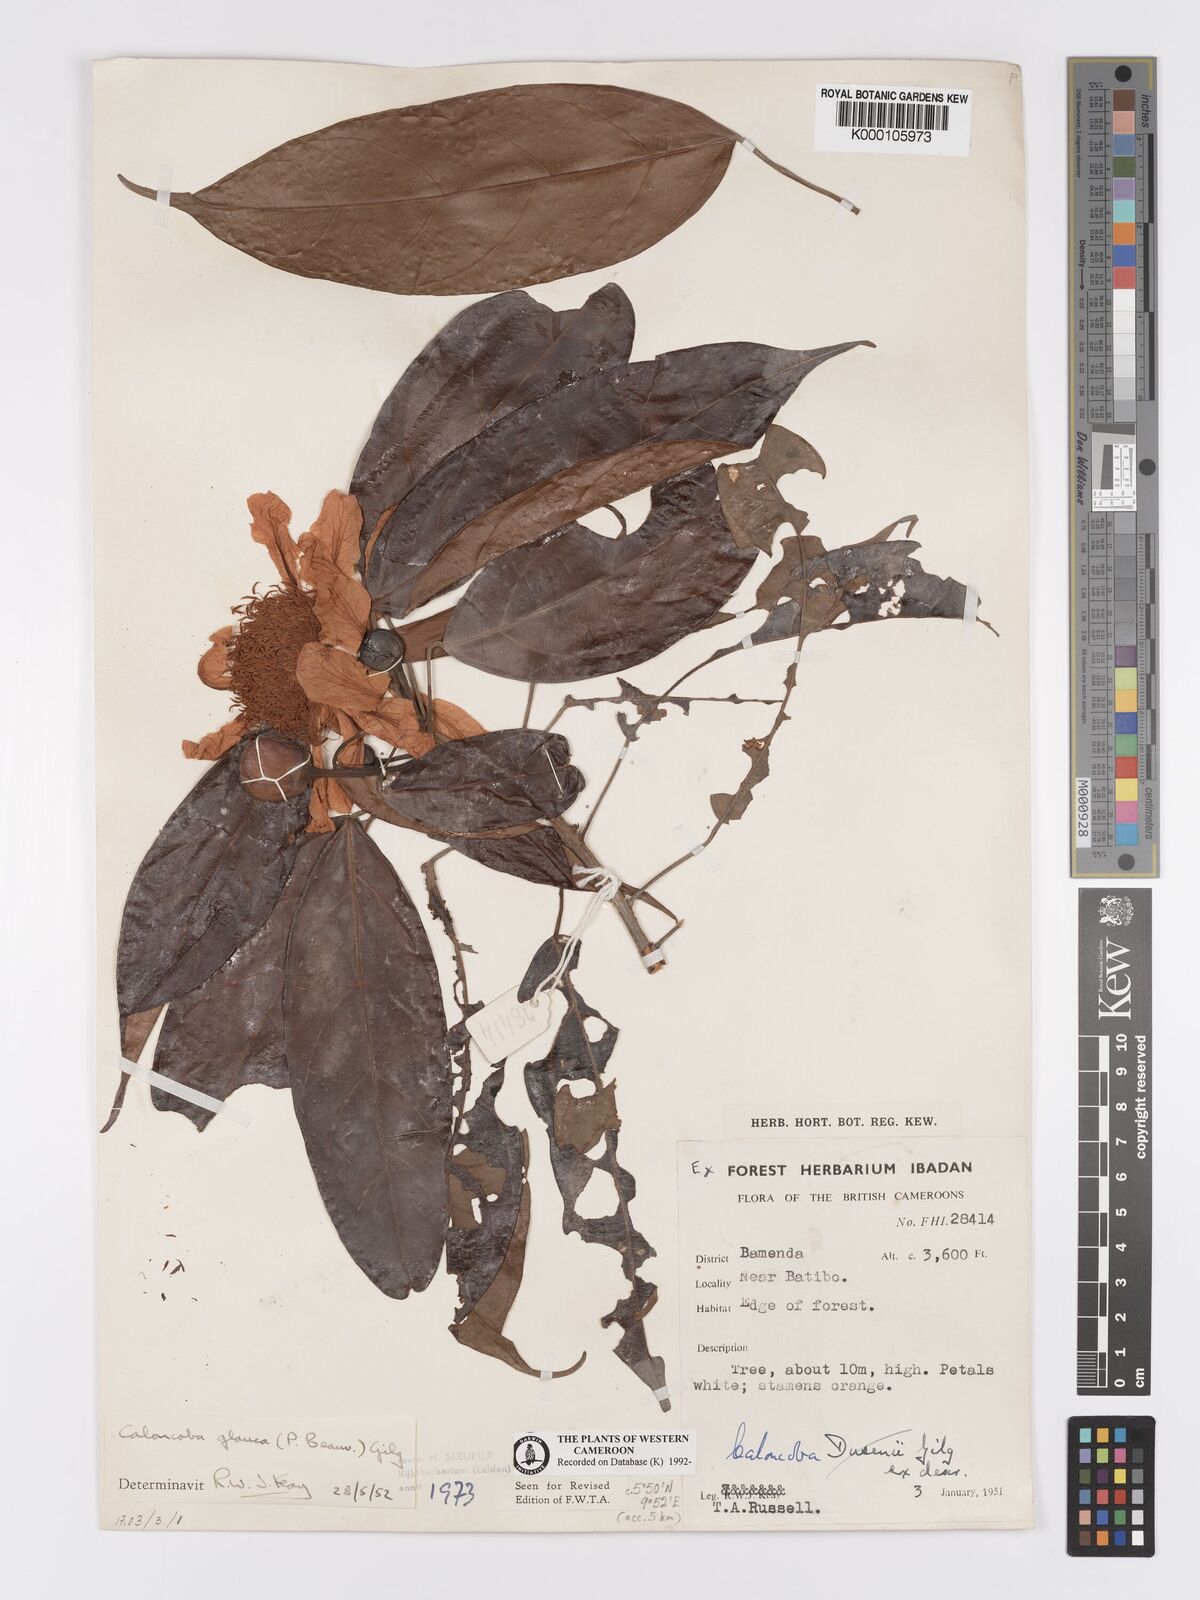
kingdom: Plantae
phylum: Tracheophyta
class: Magnoliopsida
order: Malpighiales
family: Achariaceae
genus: Caloncoba
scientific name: Caloncoba glauca
